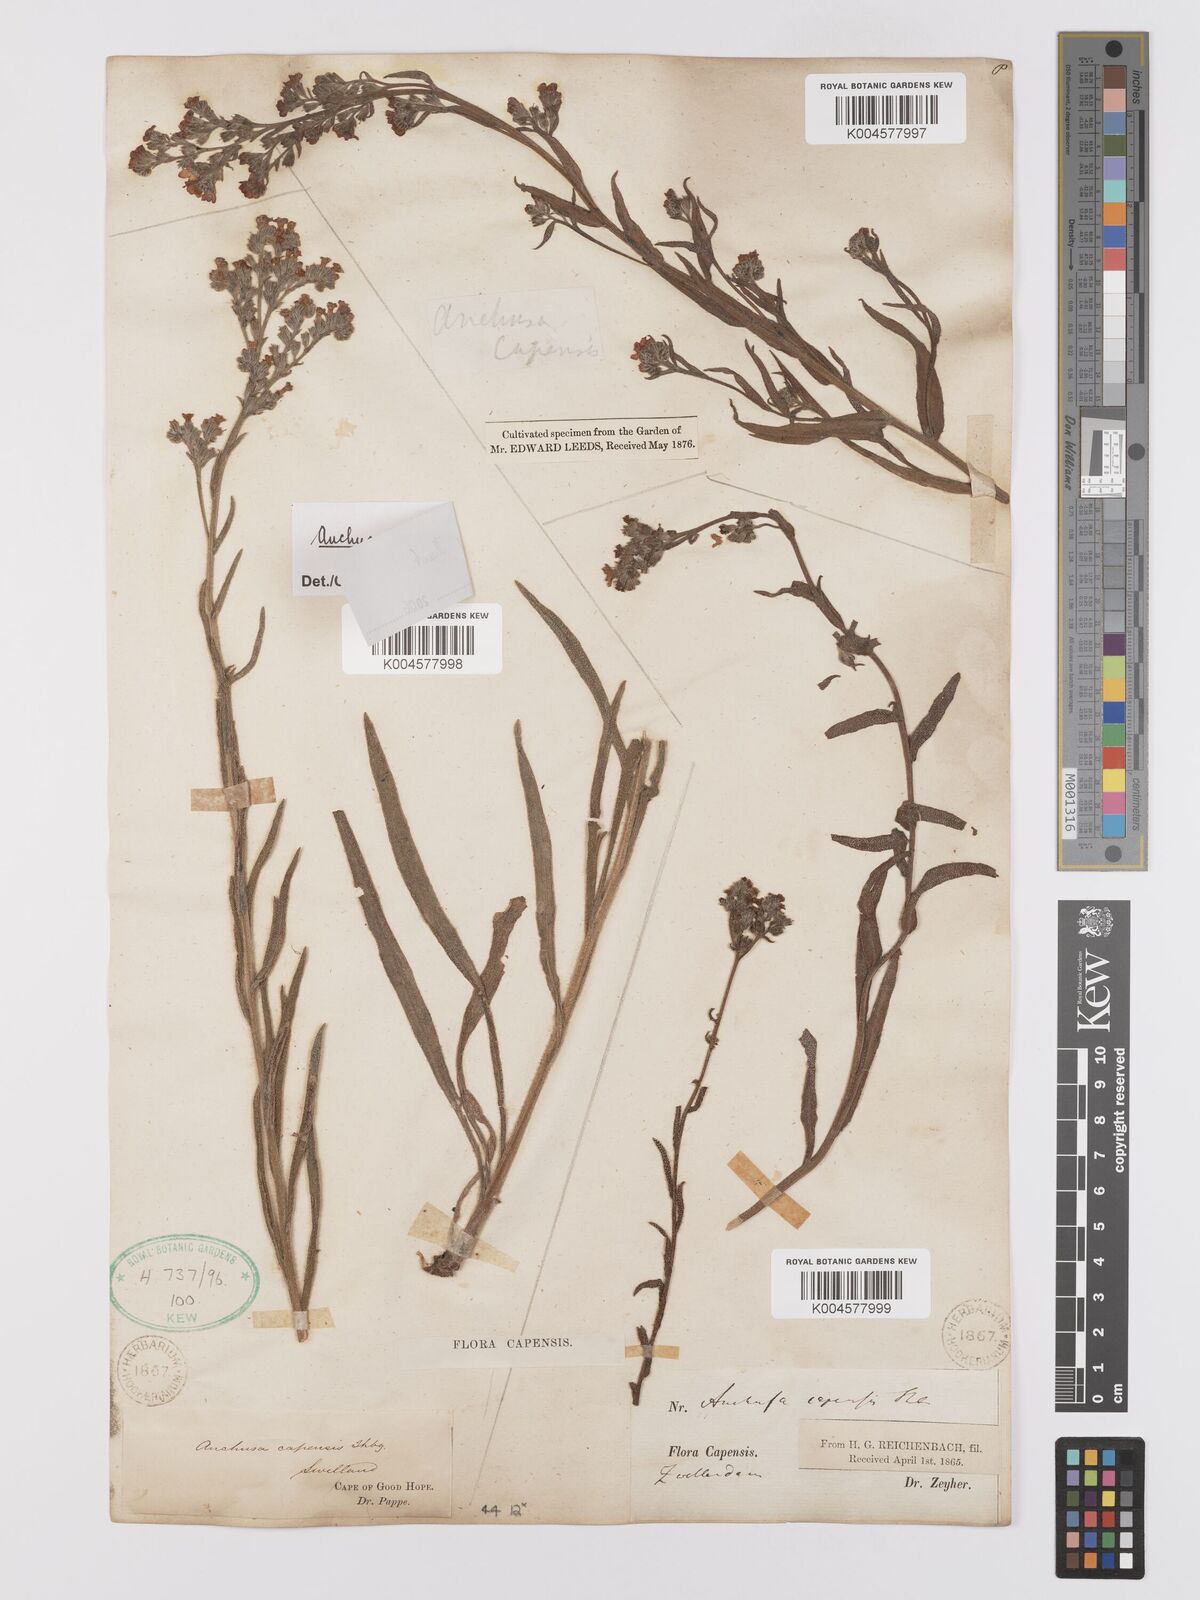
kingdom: Plantae
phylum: Tracheophyta
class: Magnoliopsida
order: Boraginales
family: Boraginaceae
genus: Anchusa
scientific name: Anchusa capensis
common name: Cape bugloss
